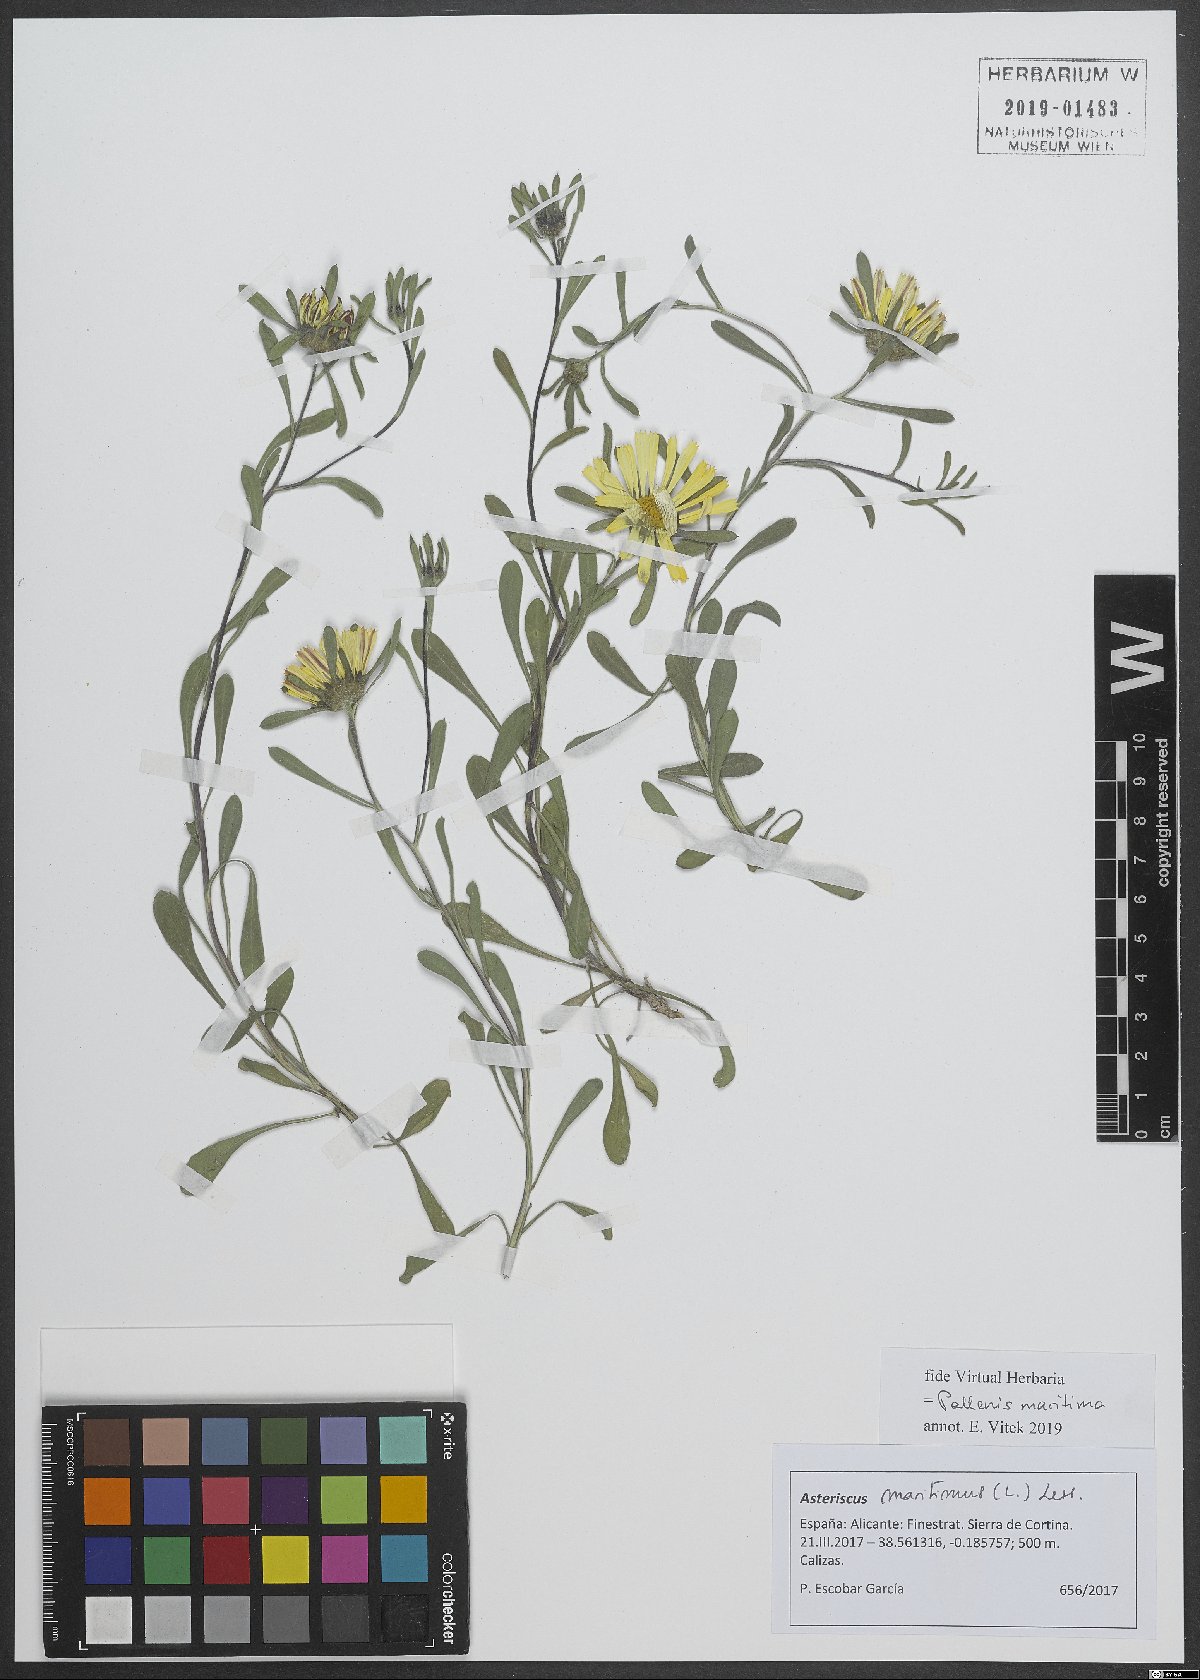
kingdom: Plantae
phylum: Tracheophyta
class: Magnoliopsida
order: Asterales
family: Asteraceae
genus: Pallenis
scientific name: Pallenis maritima
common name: Golden coin daisy
